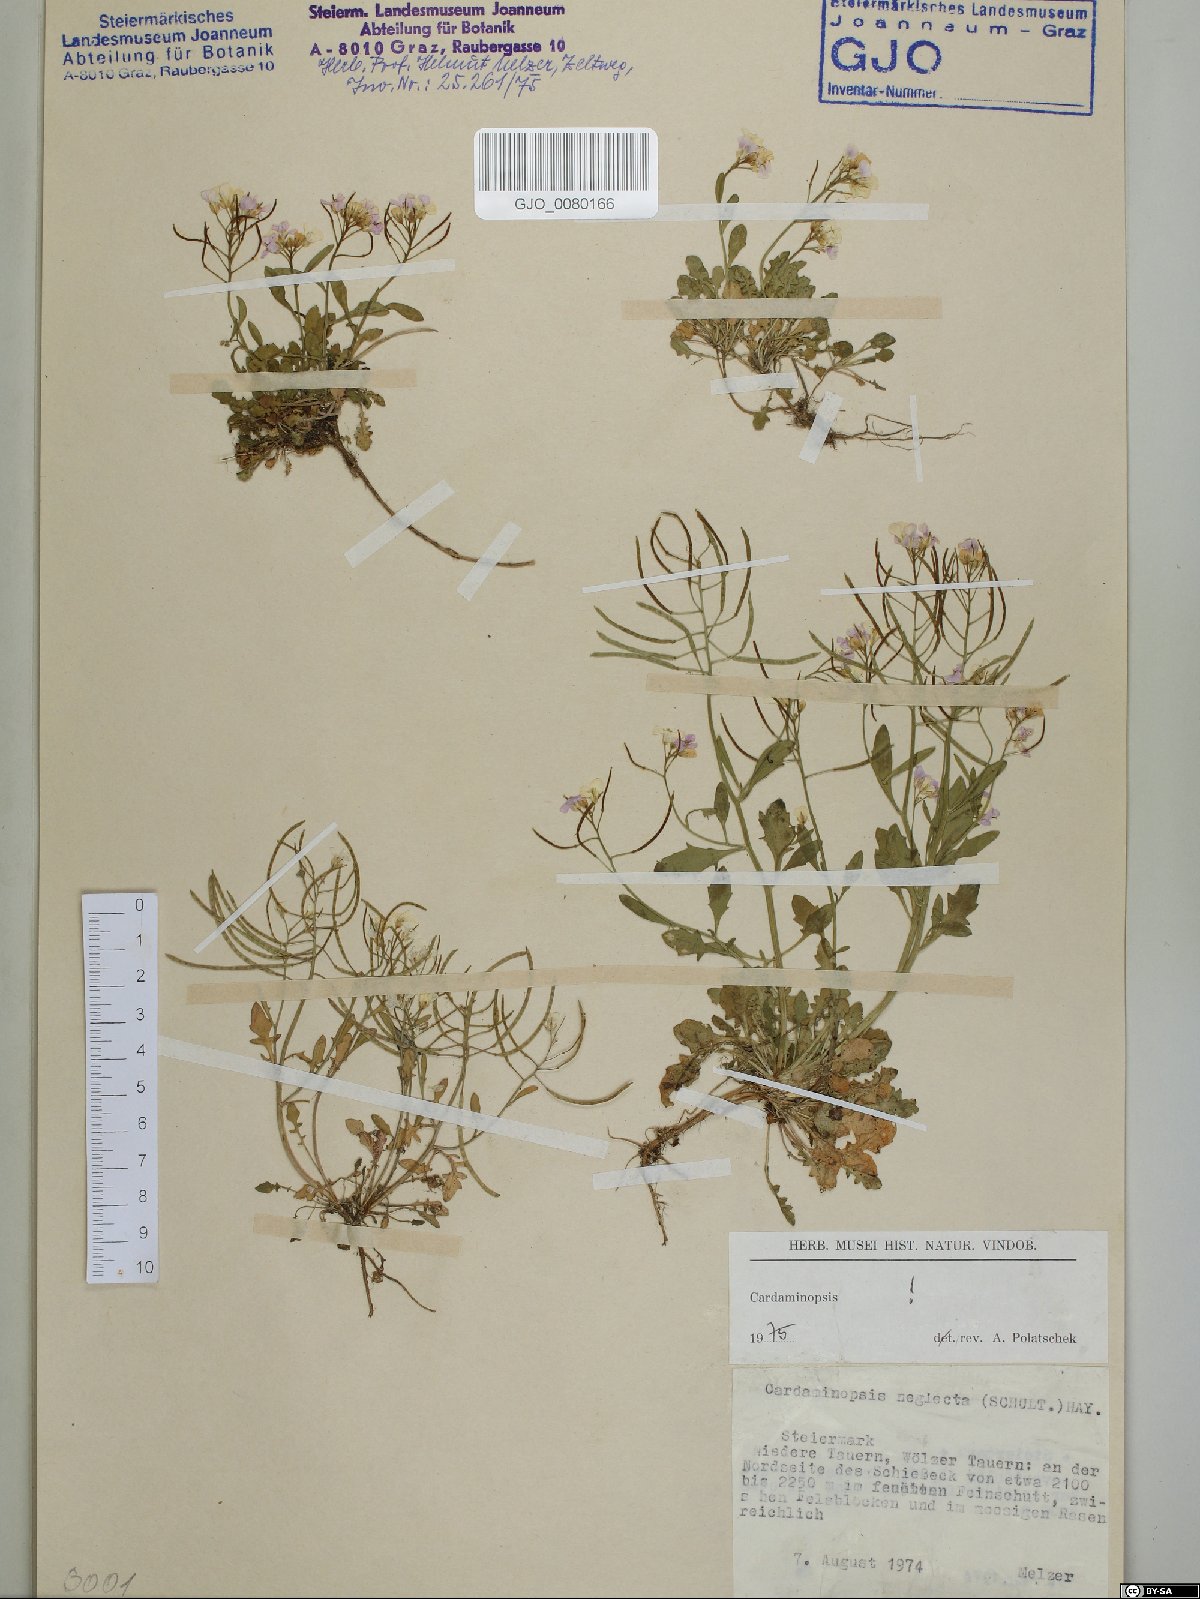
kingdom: Plantae
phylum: Tracheophyta
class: Magnoliopsida
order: Brassicales
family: Brassicaceae
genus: Arabidopsis
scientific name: Arabidopsis neglecta
